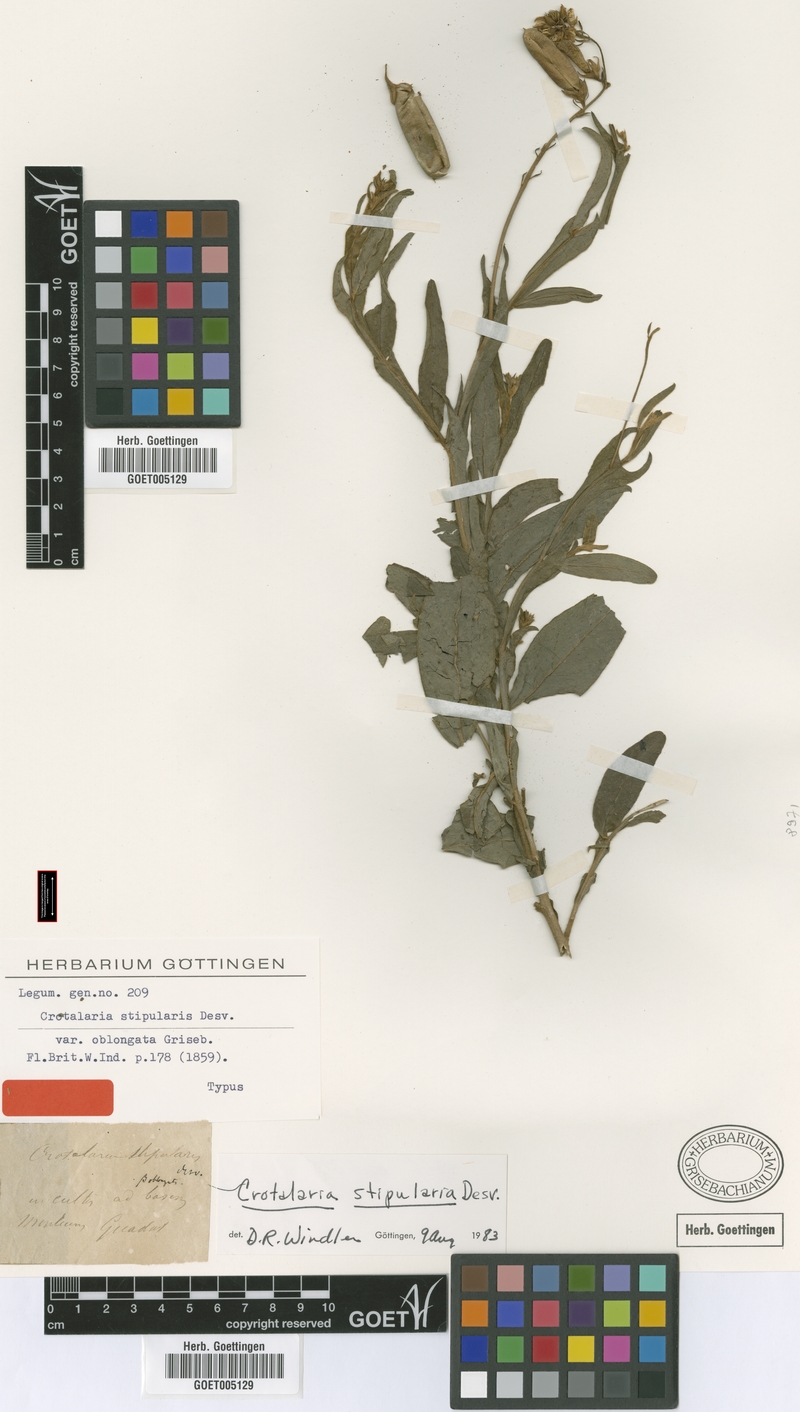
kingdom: Plantae
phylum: Tracheophyta
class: Magnoliopsida
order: Fabales
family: Fabaceae
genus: Crotalaria
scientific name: Crotalaria stipularia
